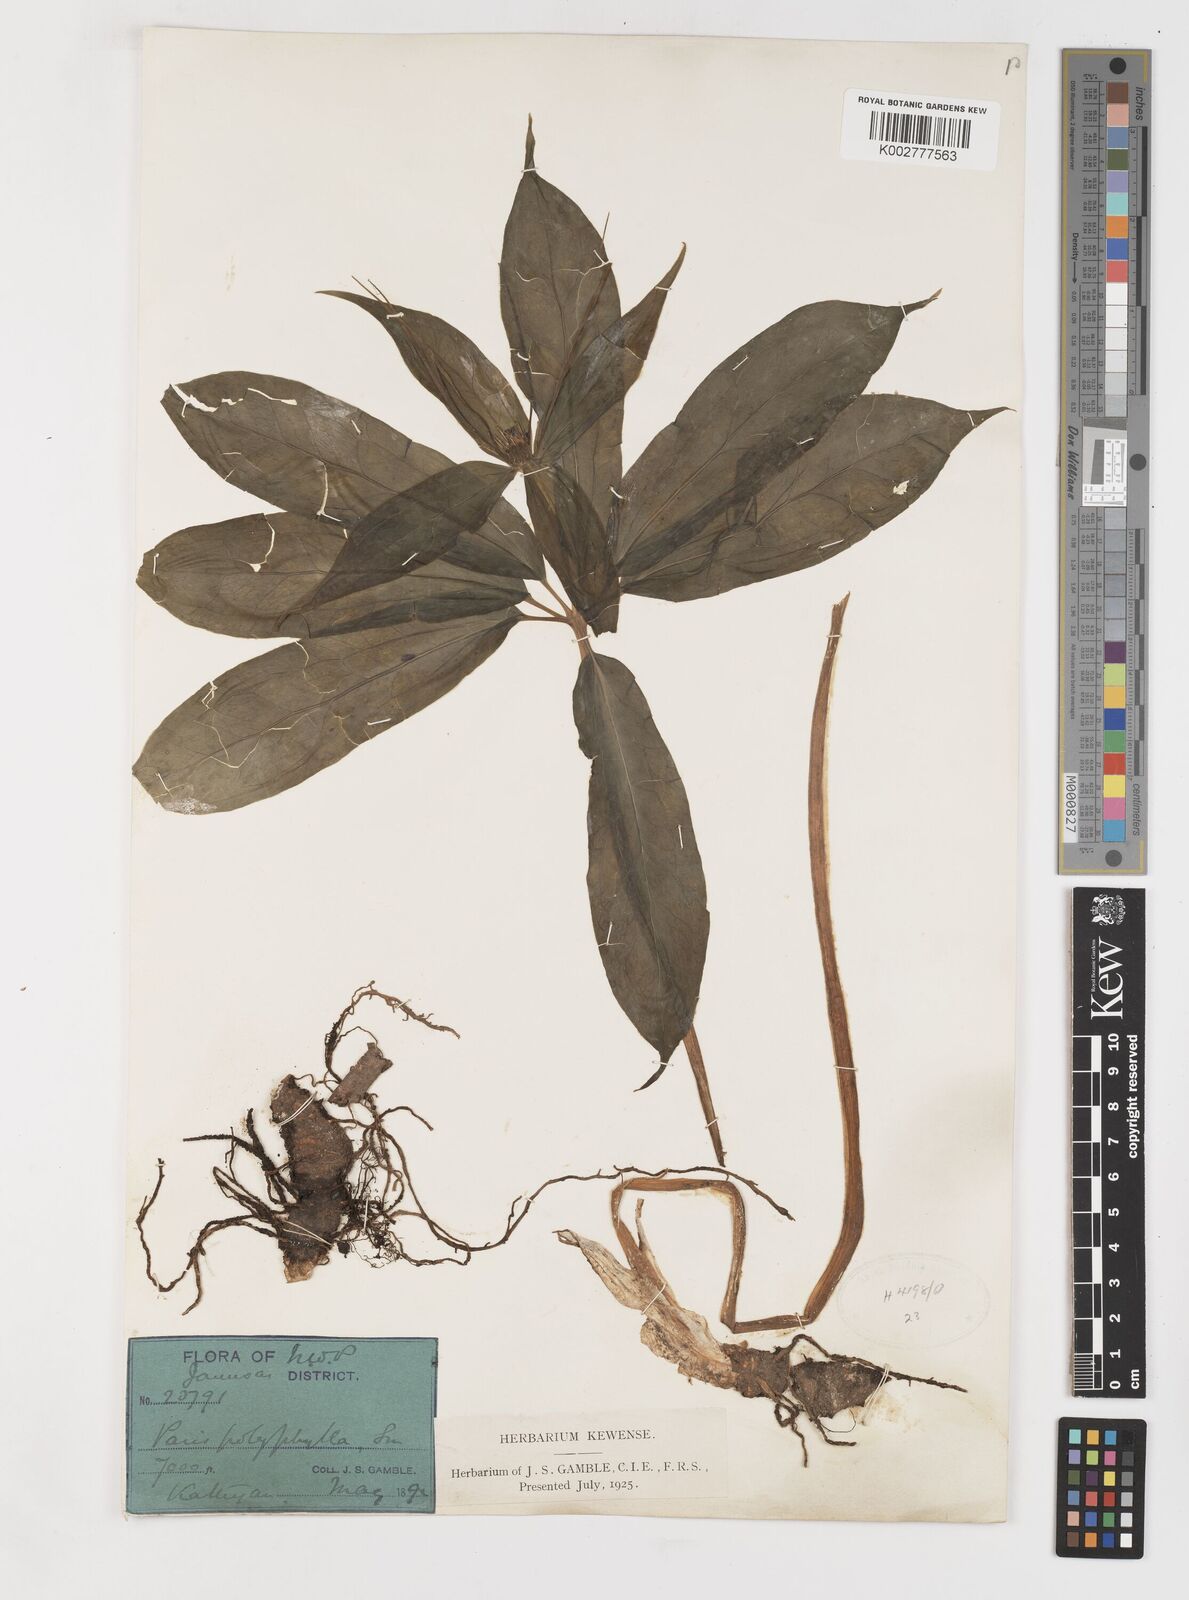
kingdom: Plantae
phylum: Tracheophyta
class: Liliopsida
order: Liliales
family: Melanthiaceae
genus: Paris
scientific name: Paris polyphylla
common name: Love apple
